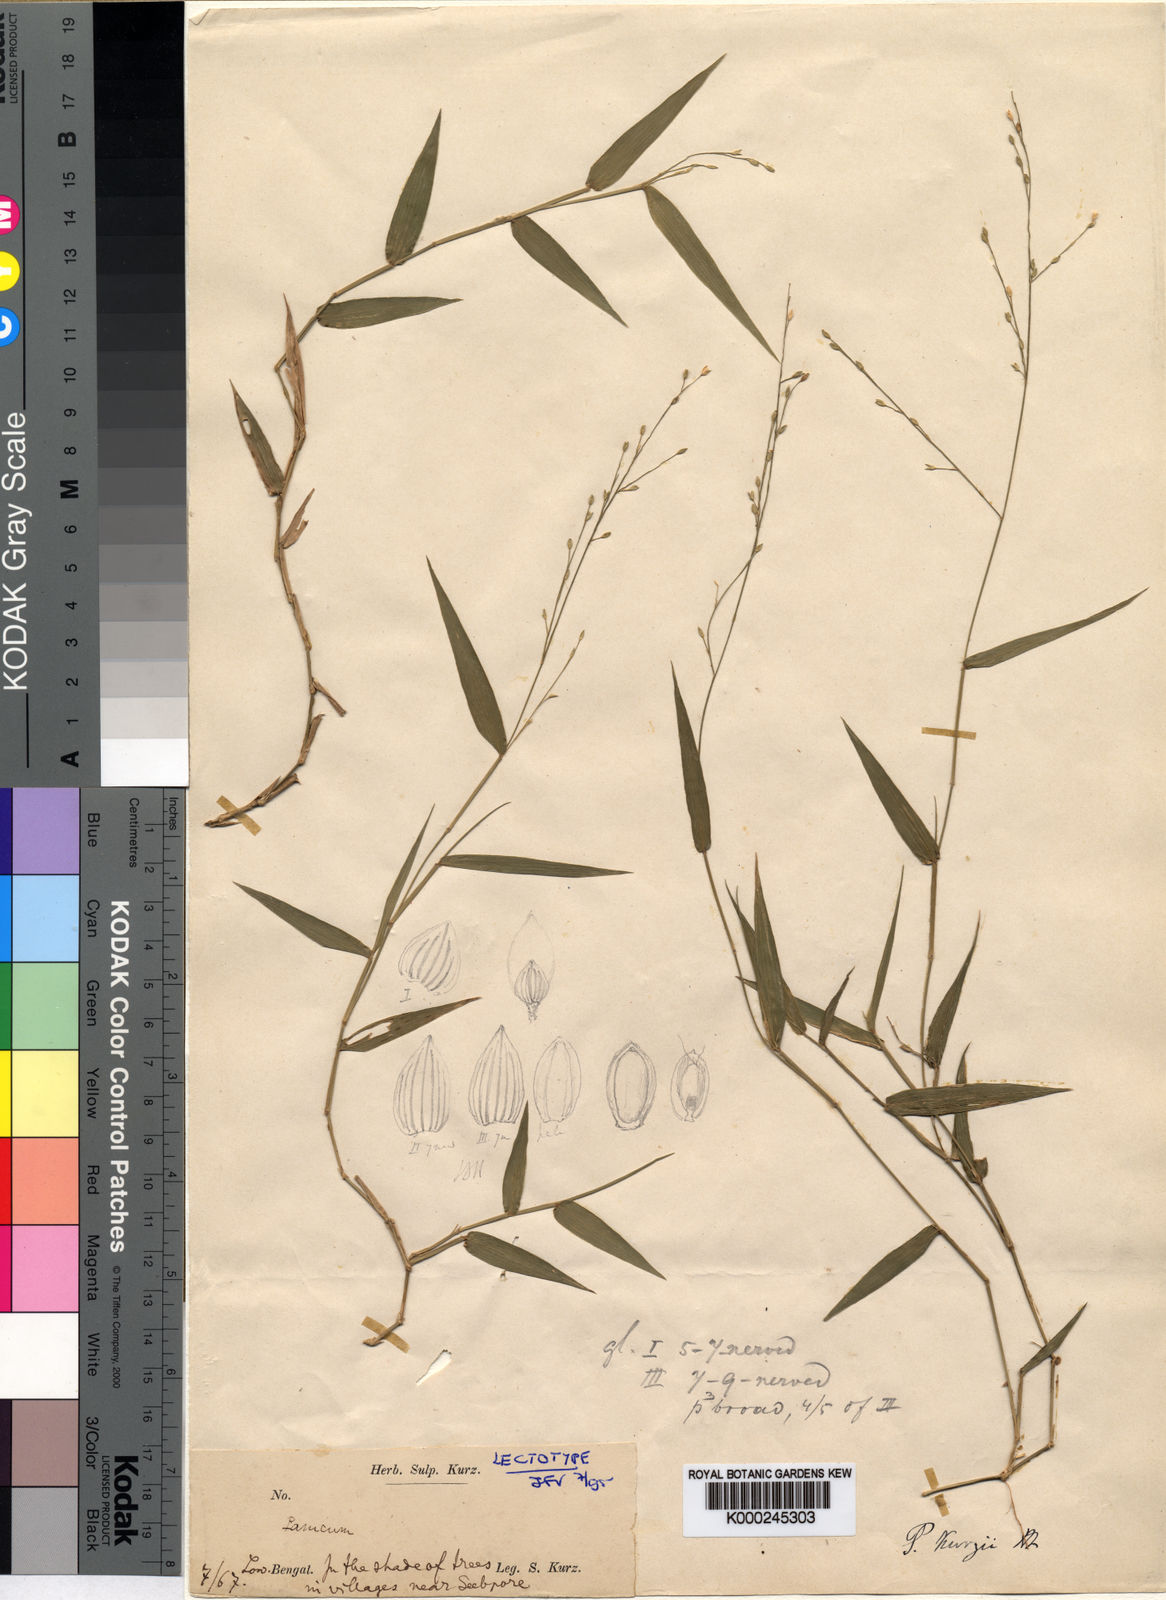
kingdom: Plantae
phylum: Tracheophyta
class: Liliopsida
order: Poales
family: Poaceae
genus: Urochloa
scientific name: Urochloa kurzii
